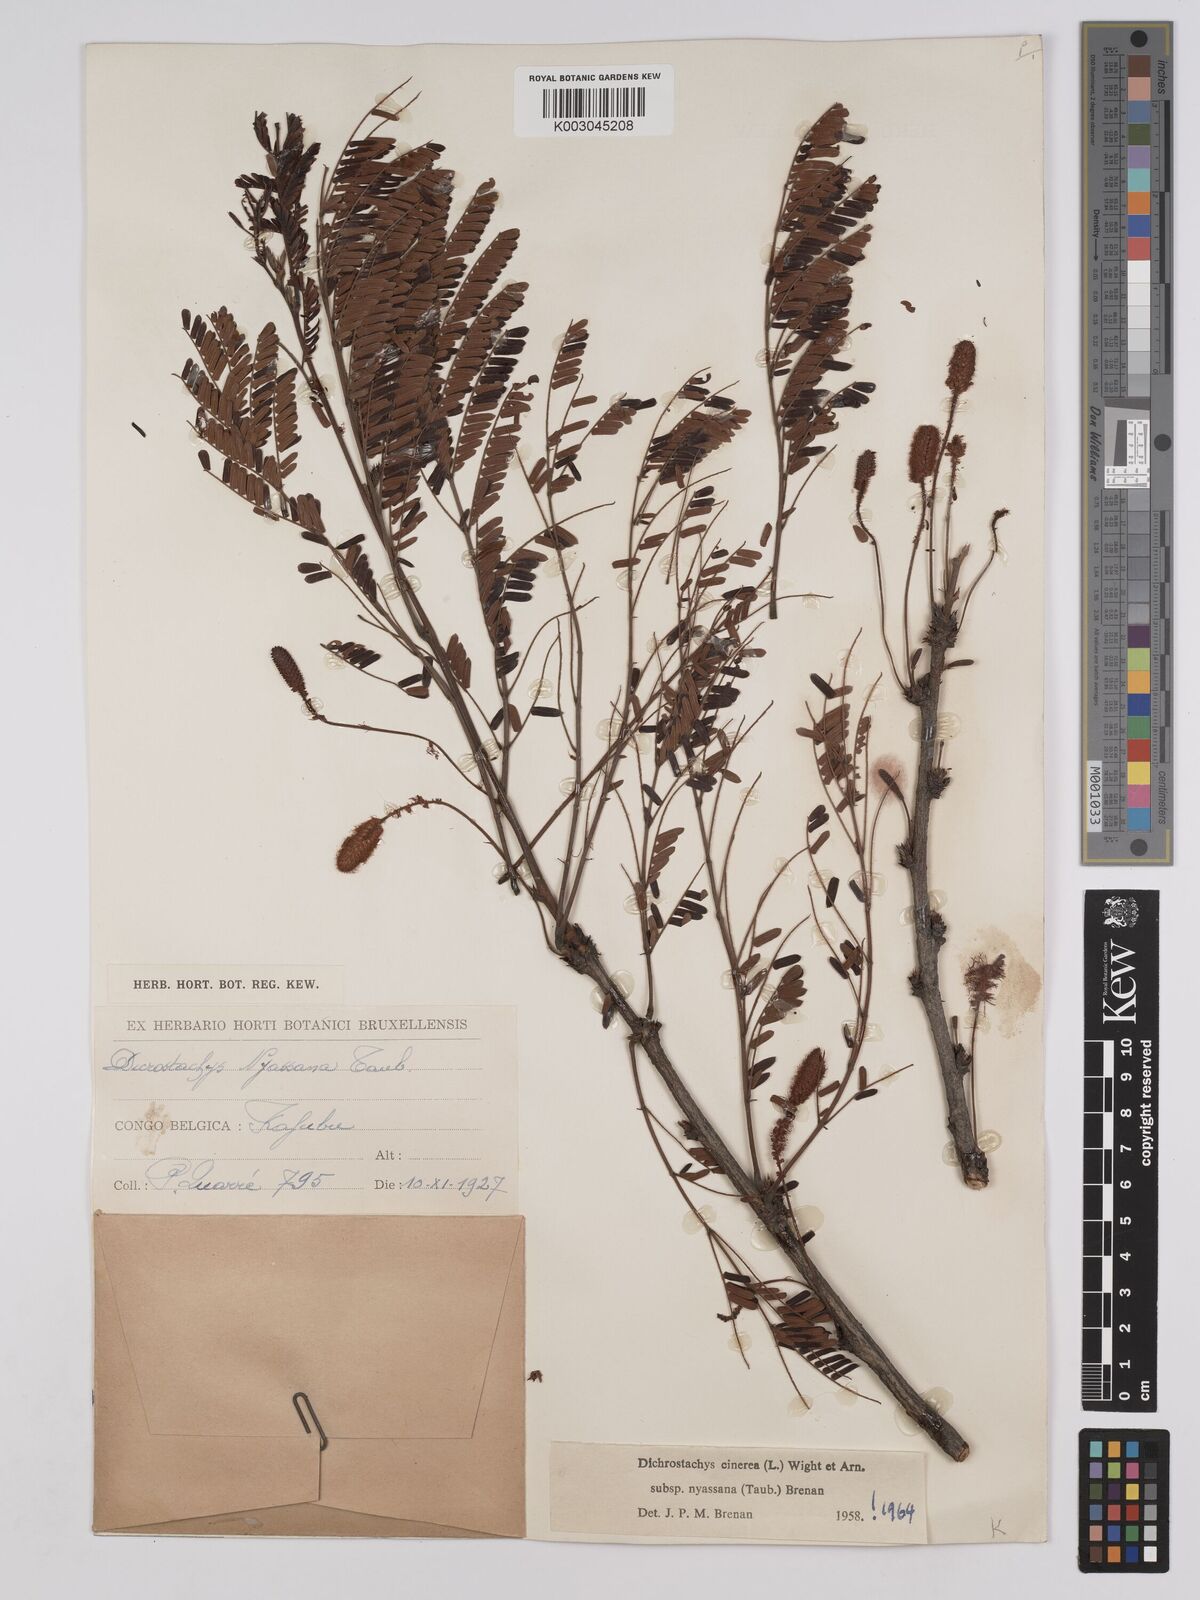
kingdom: Plantae
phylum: Tracheophyta
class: Magnoliopsida
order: Fabales
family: Fabaceae
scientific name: Fabaceae
